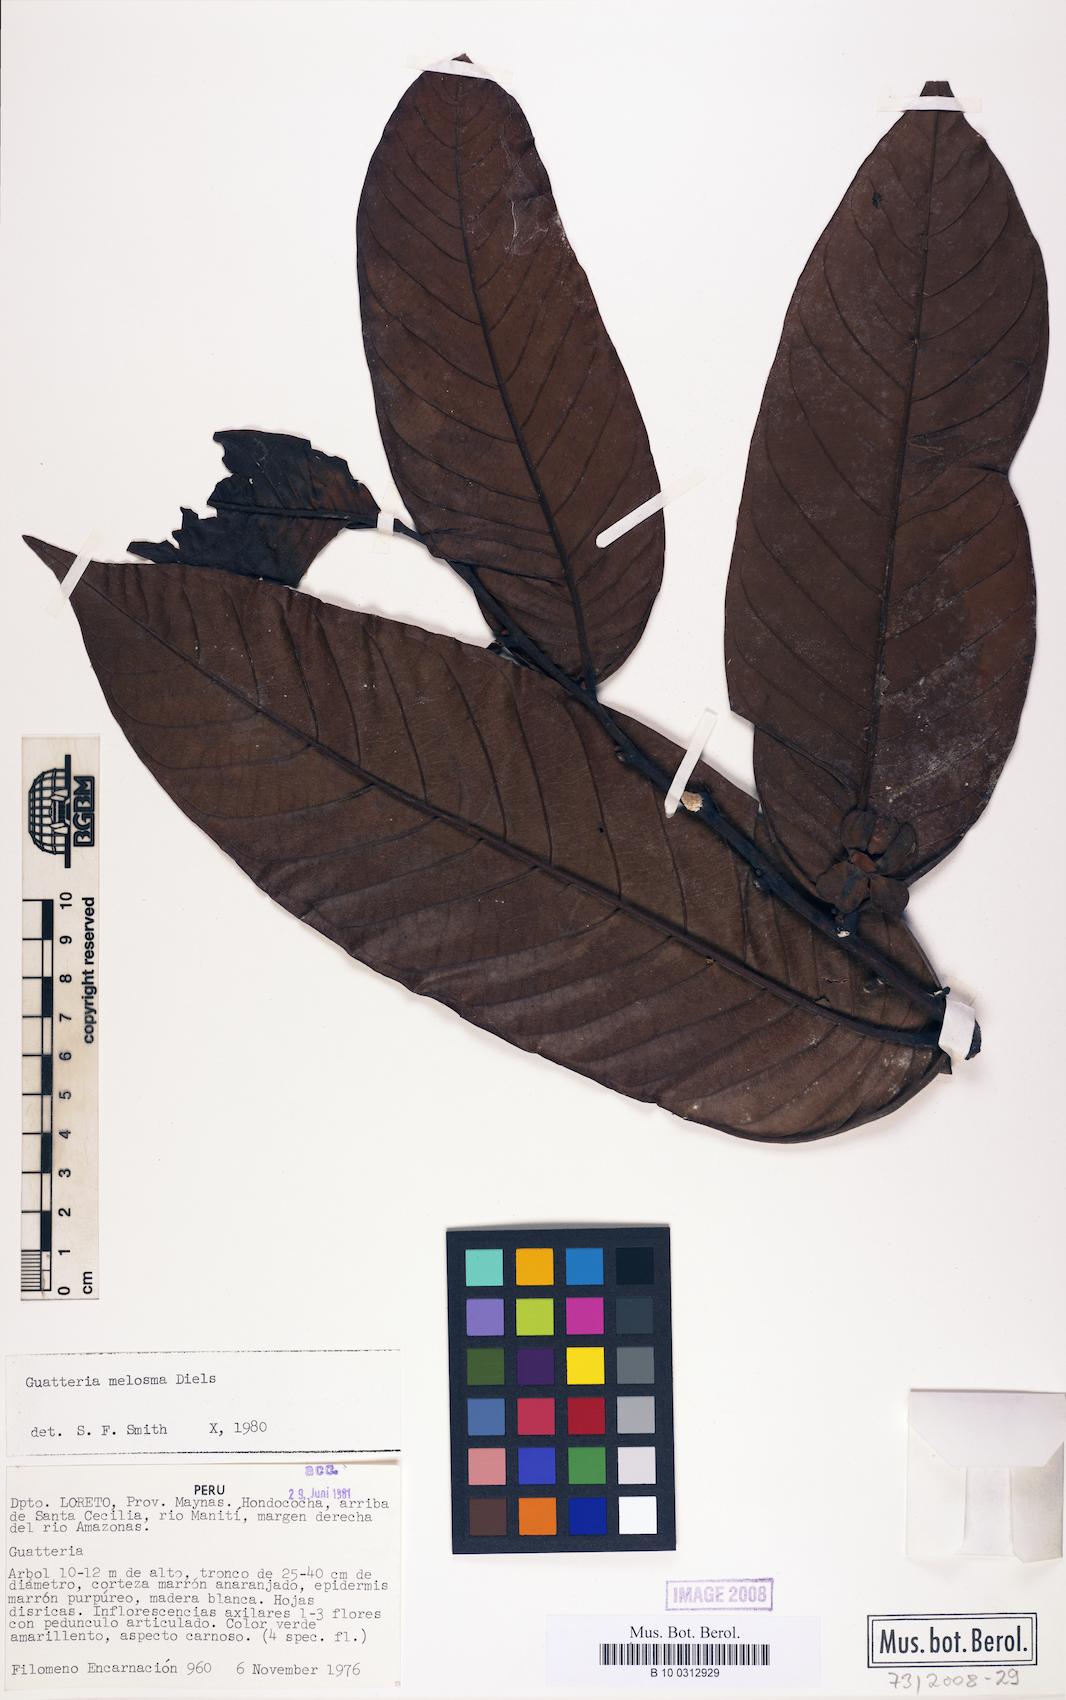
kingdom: Plantae
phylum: Tracheophyta
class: Magnoliopsida
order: Magnoliales
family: Annonaceae
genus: Guatteria
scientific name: Guatteria flabellata
